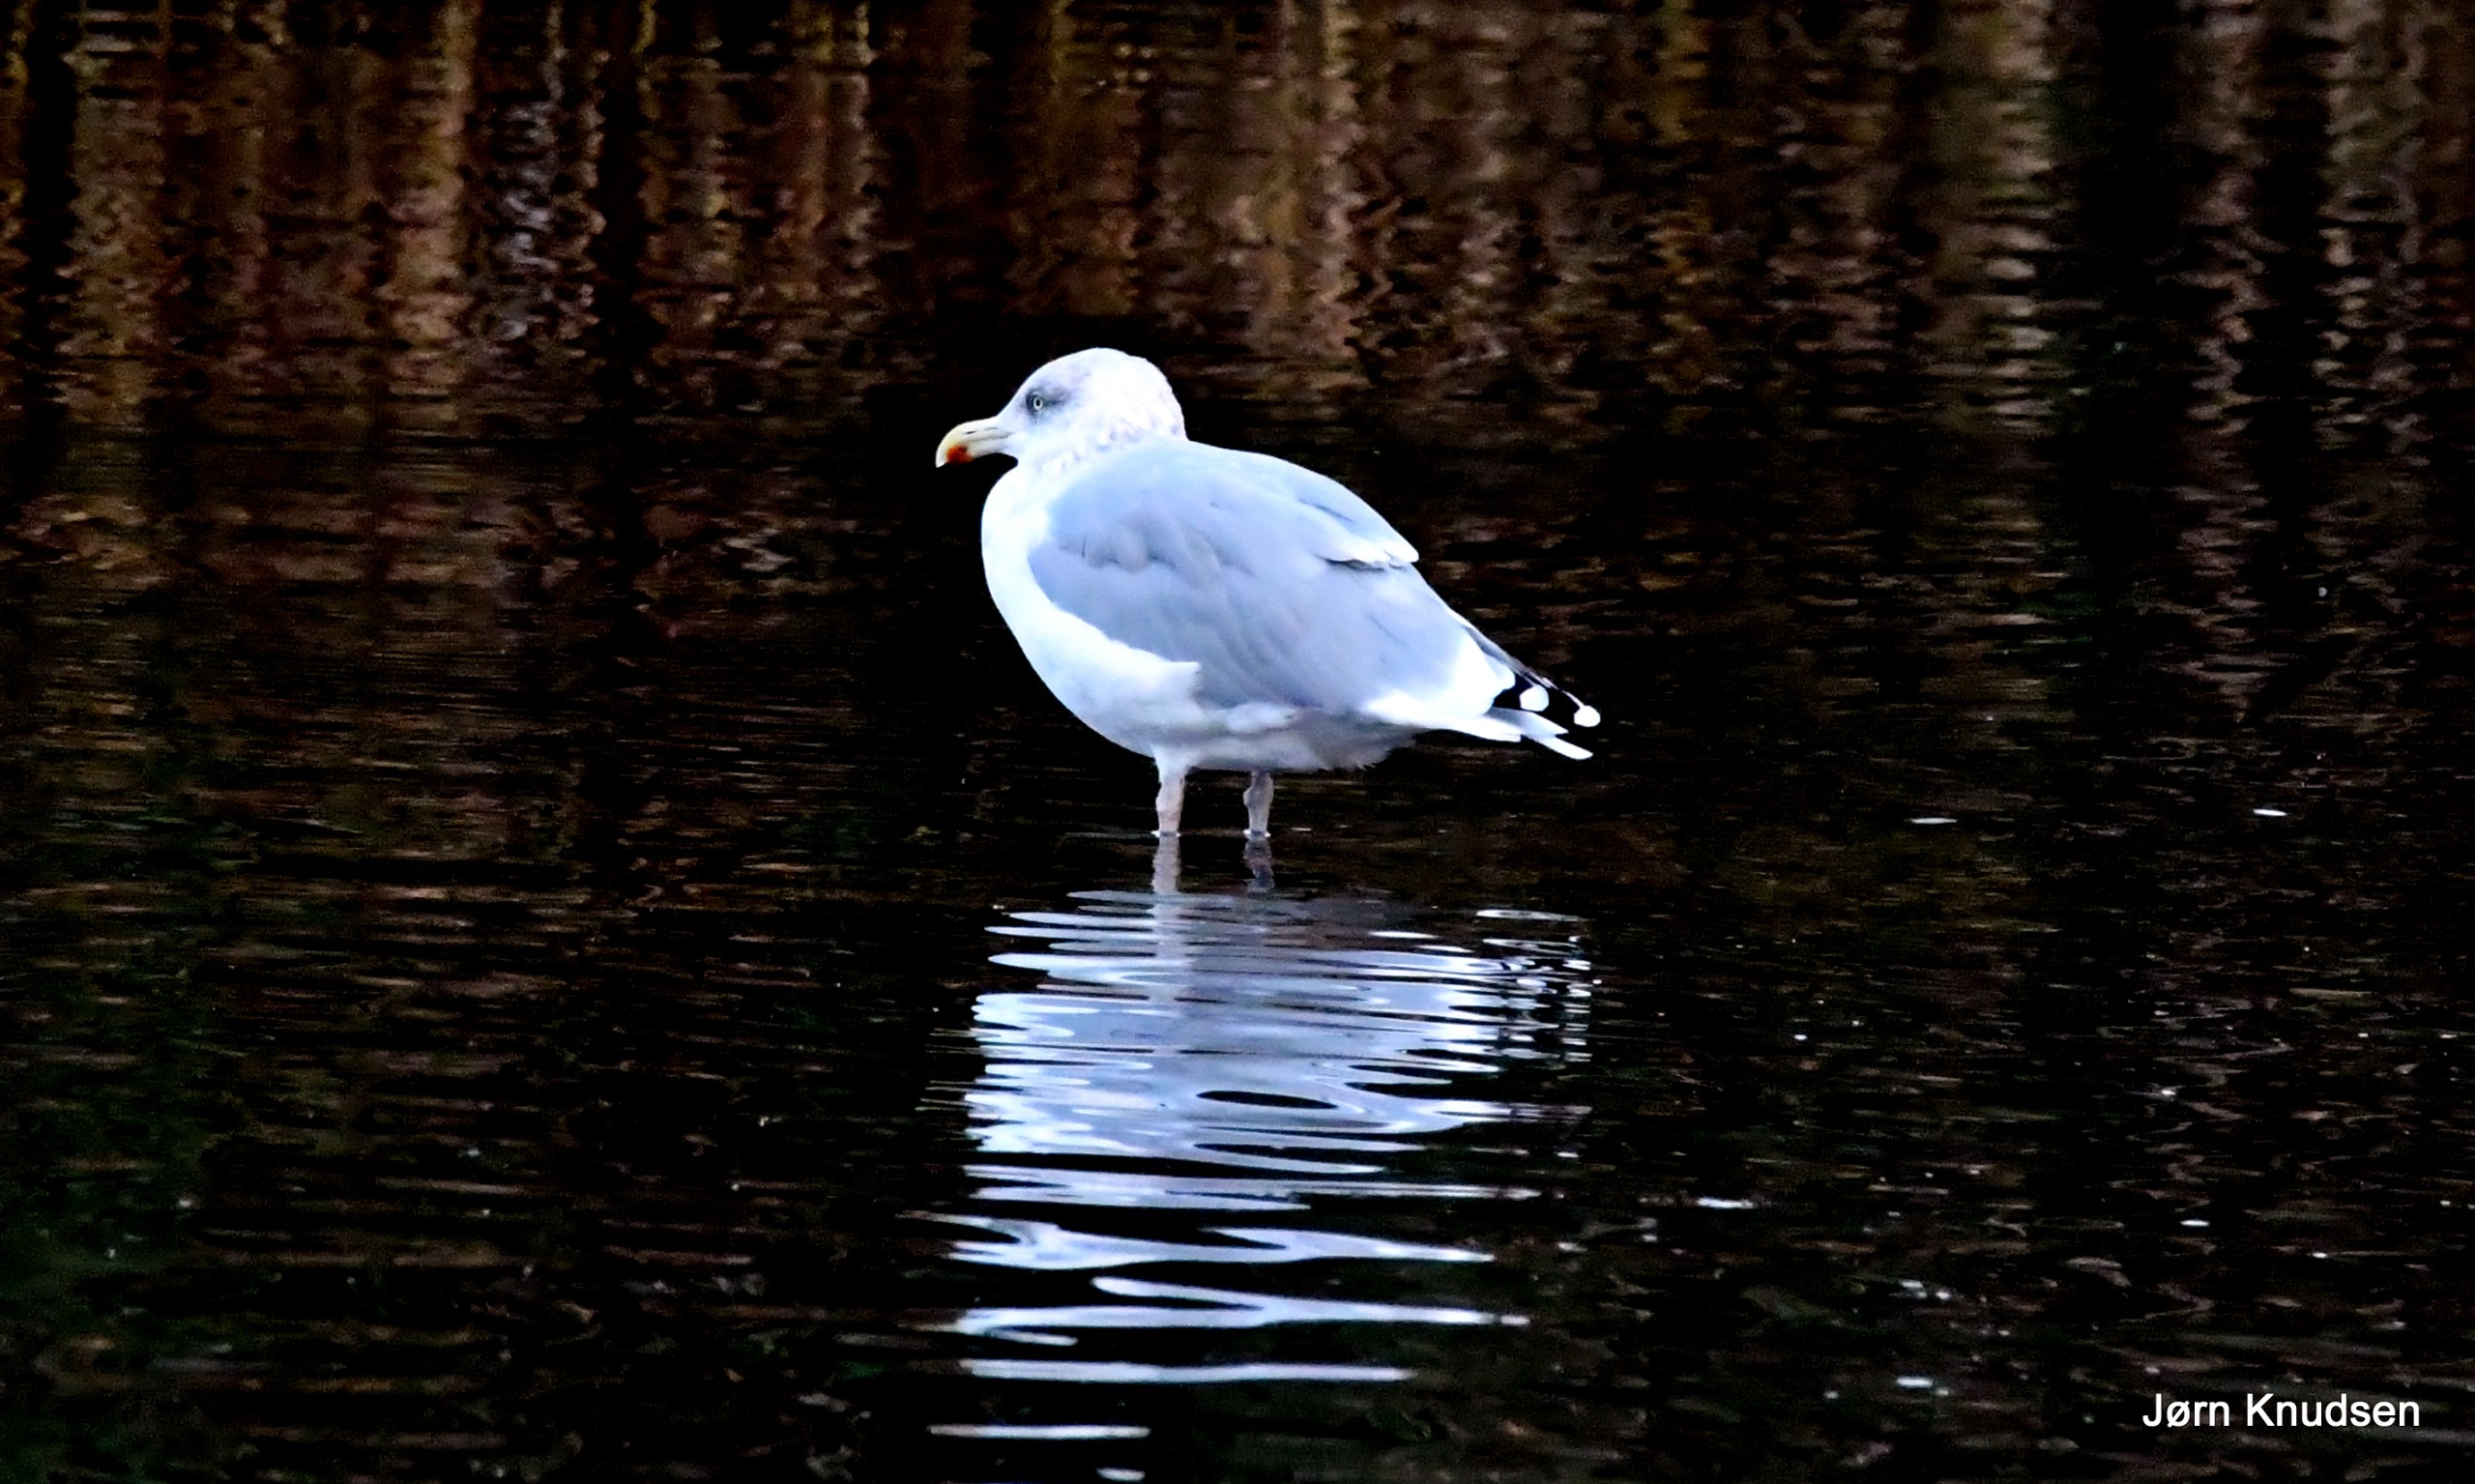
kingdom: Animalia
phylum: Chordata
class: Aves
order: Charadriiformes
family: Laridae
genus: Larus
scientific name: Larus argentatus
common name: Sølvmåge
